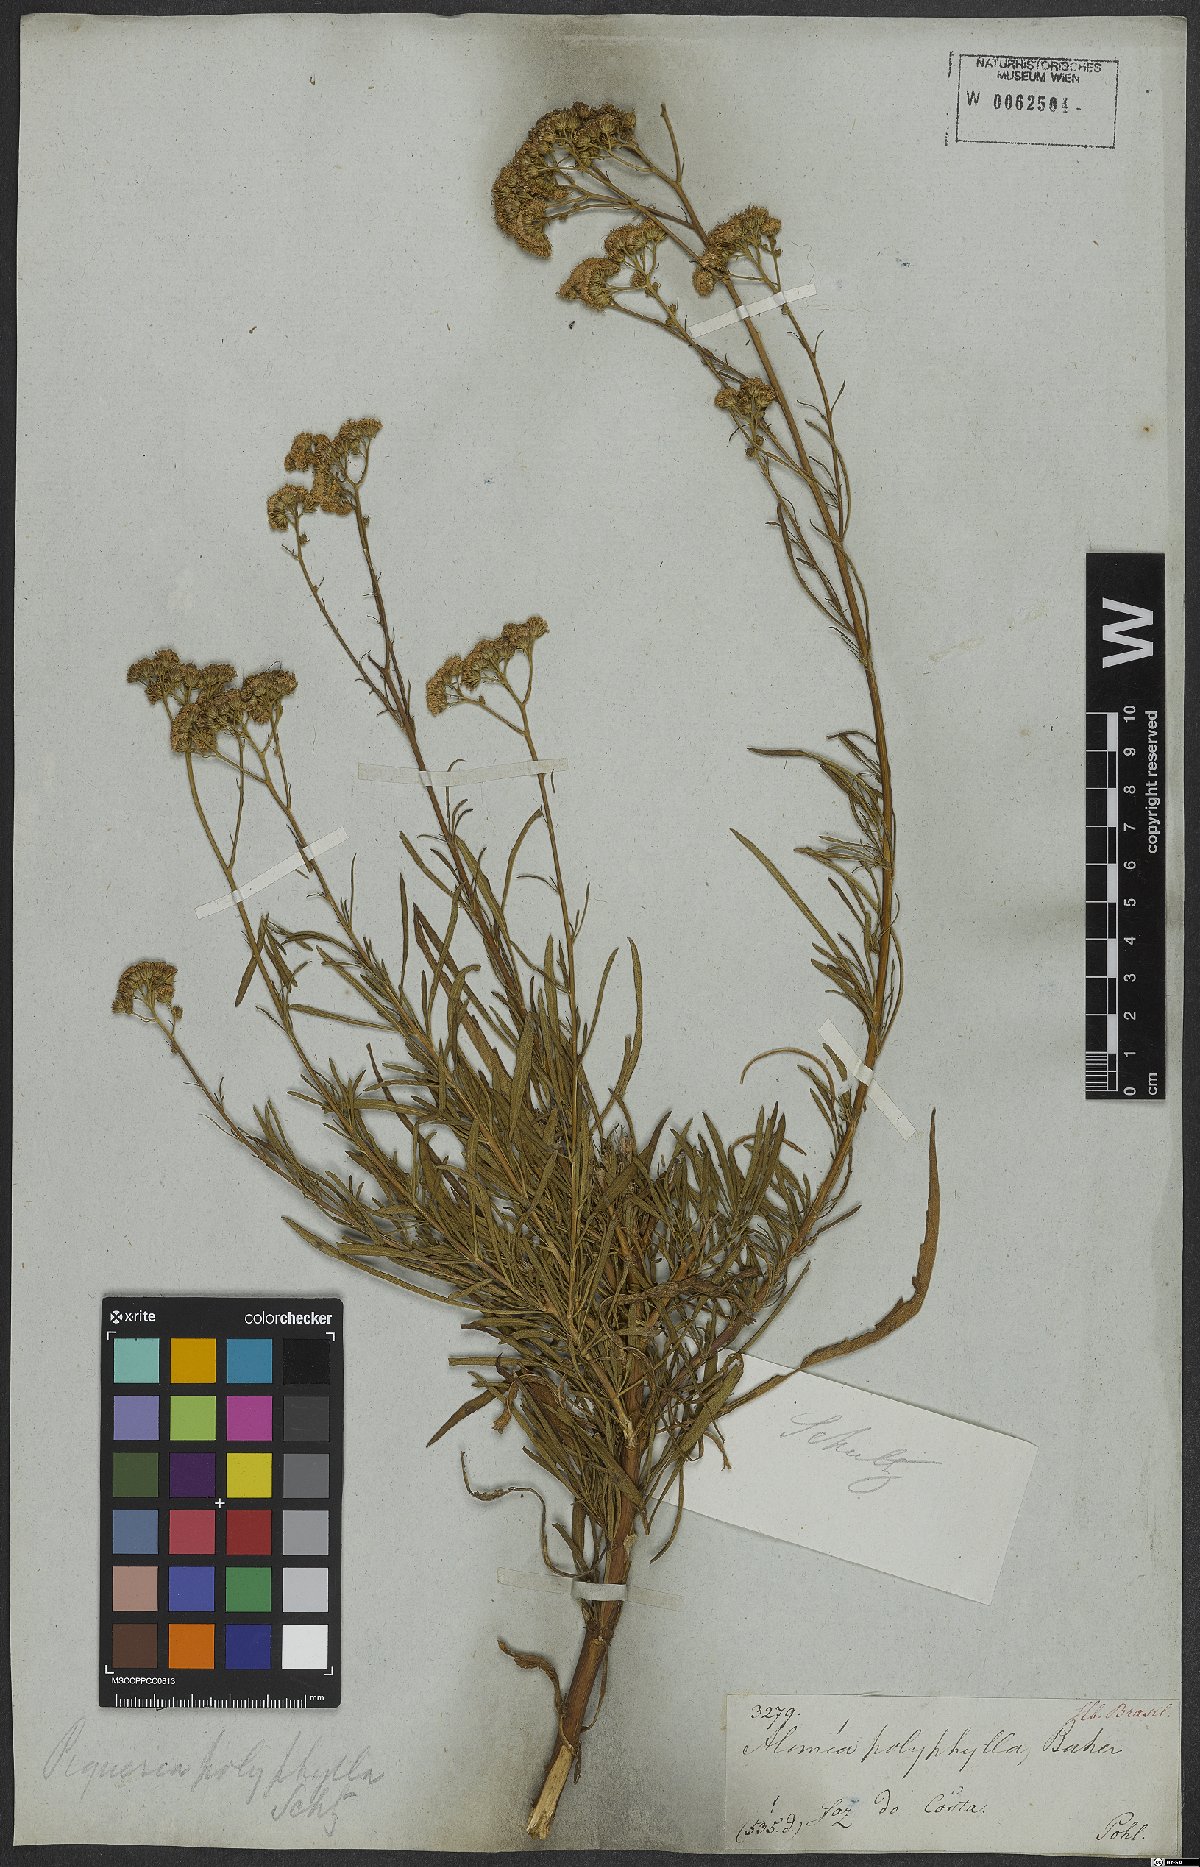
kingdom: Plantae
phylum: Tracheophyta
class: Magnoliopsida
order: Asterales
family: Asteraceae
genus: Ageratum
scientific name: Ageratum fastigiatum
